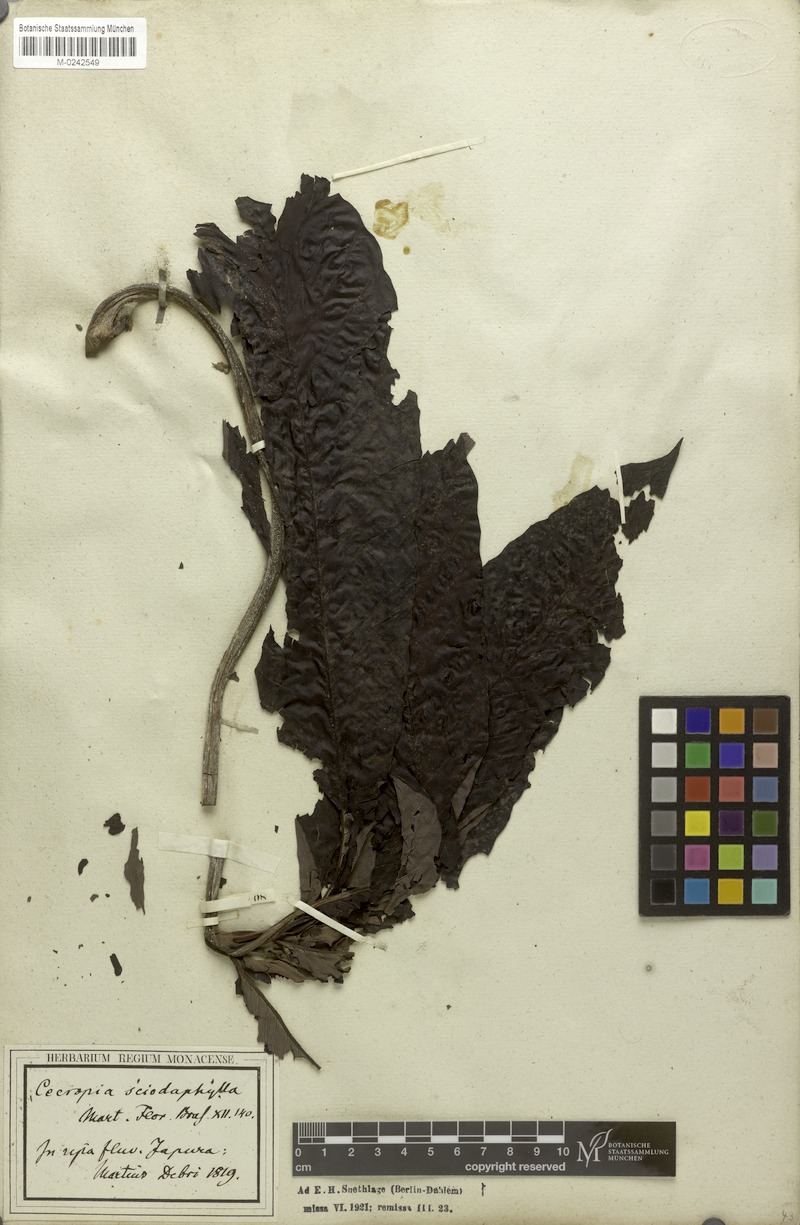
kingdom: Plantae
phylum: Tracheophyta
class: Magnoliopsida
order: Rosales
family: Urticaceae
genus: Cecropia
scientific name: Cecropia sciadophylla
